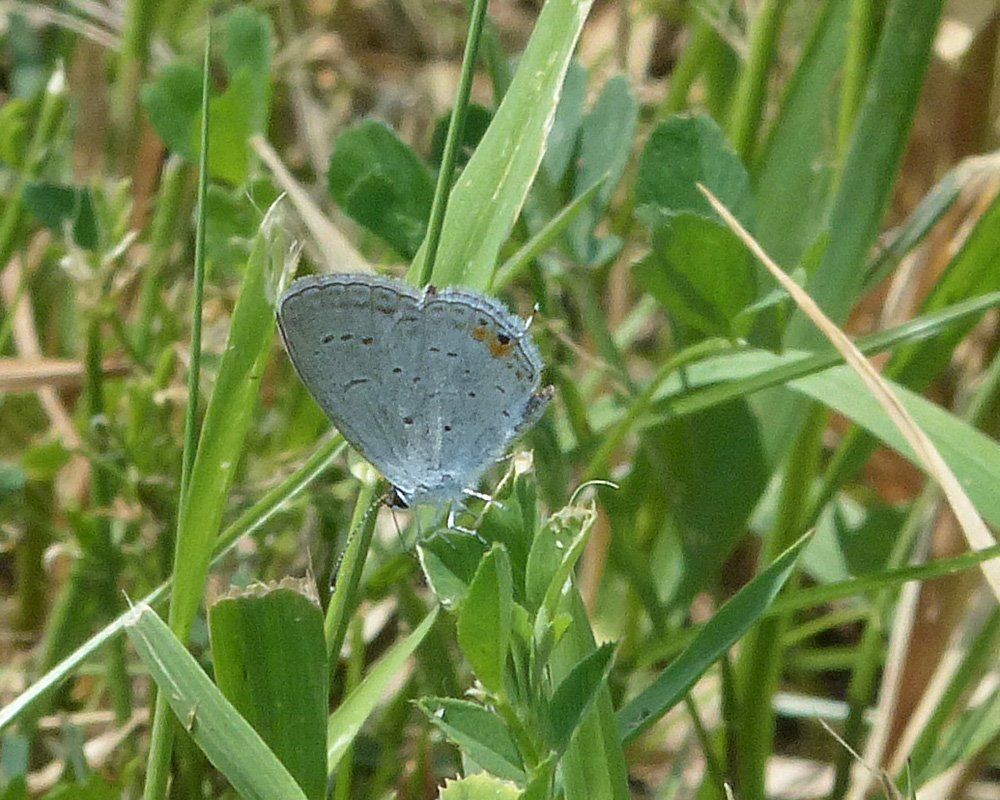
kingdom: Animalia
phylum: Arthropoda
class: Insecta
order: Lepidoptera
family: Lycaenidae
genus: Elkalyce
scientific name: Elkalyce comyntas
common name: Eastern Tailed-Blue
